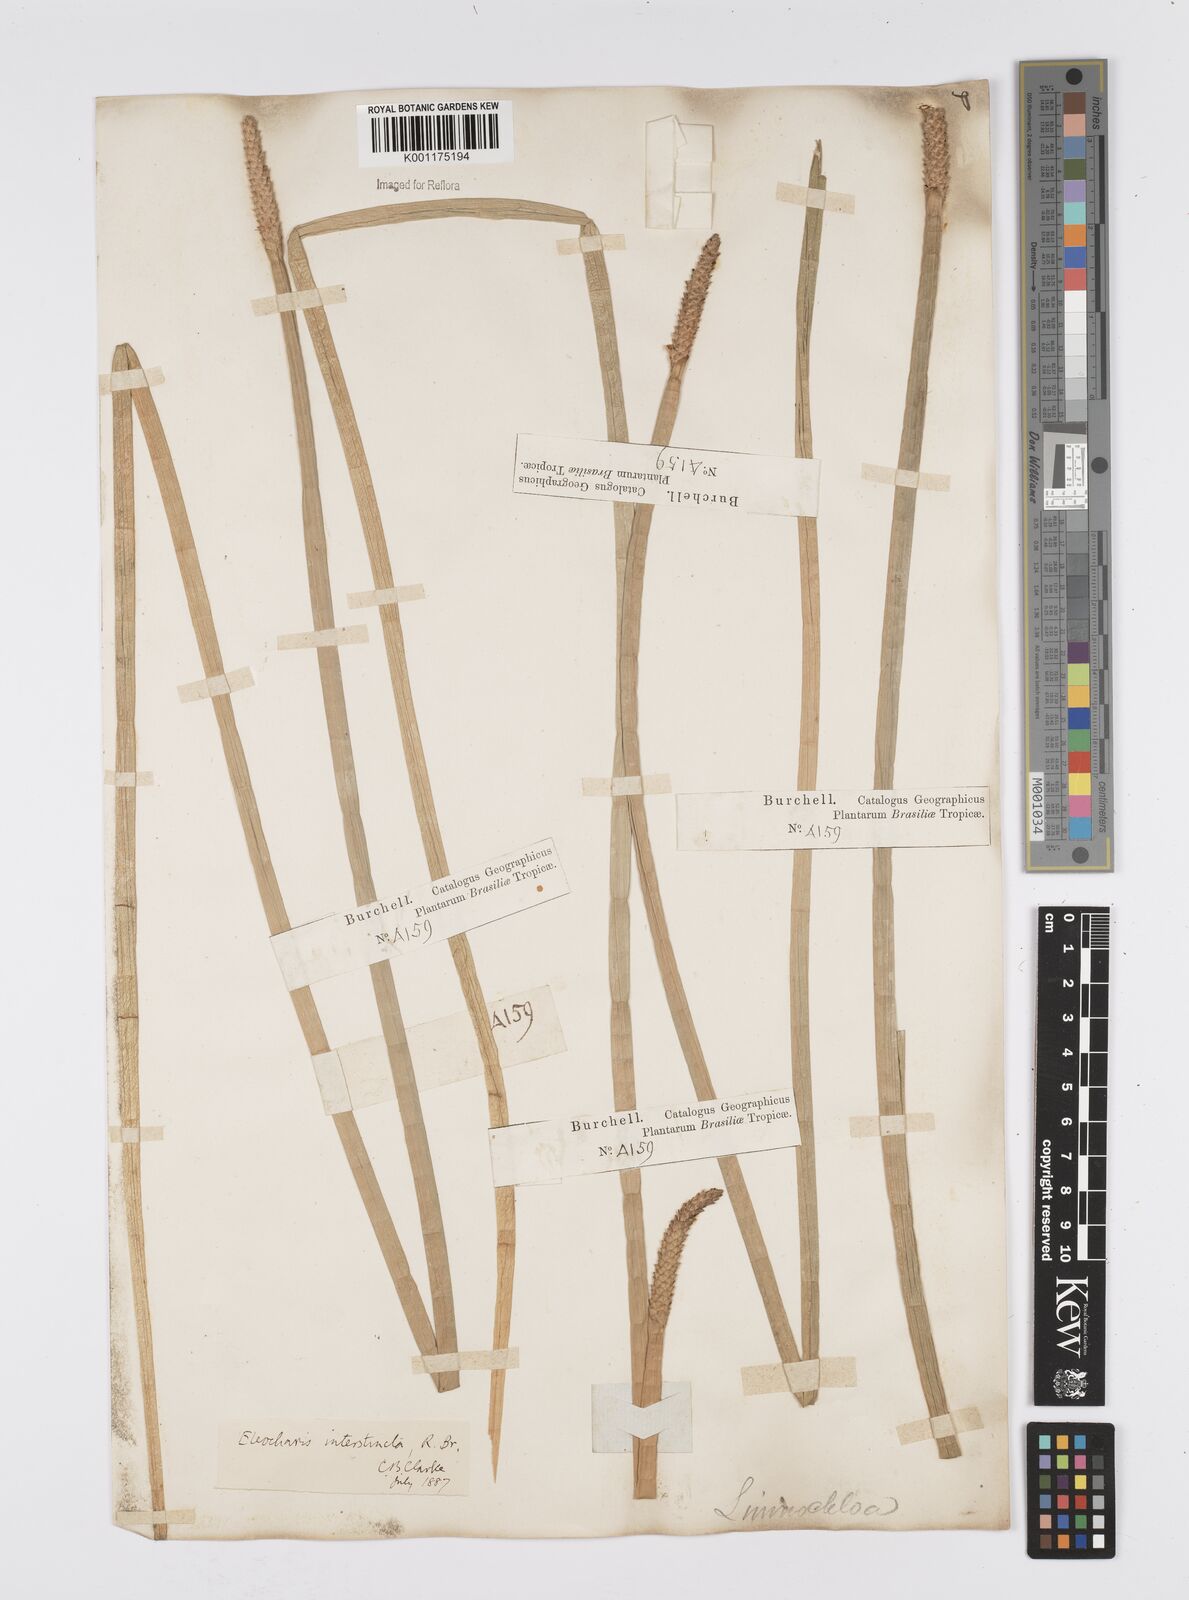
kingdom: Plantae
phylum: Tracheophyta
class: Liliopsida
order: Poales
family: Cyperaceae
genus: Eleocharis
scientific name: Eleocharis interstincta
